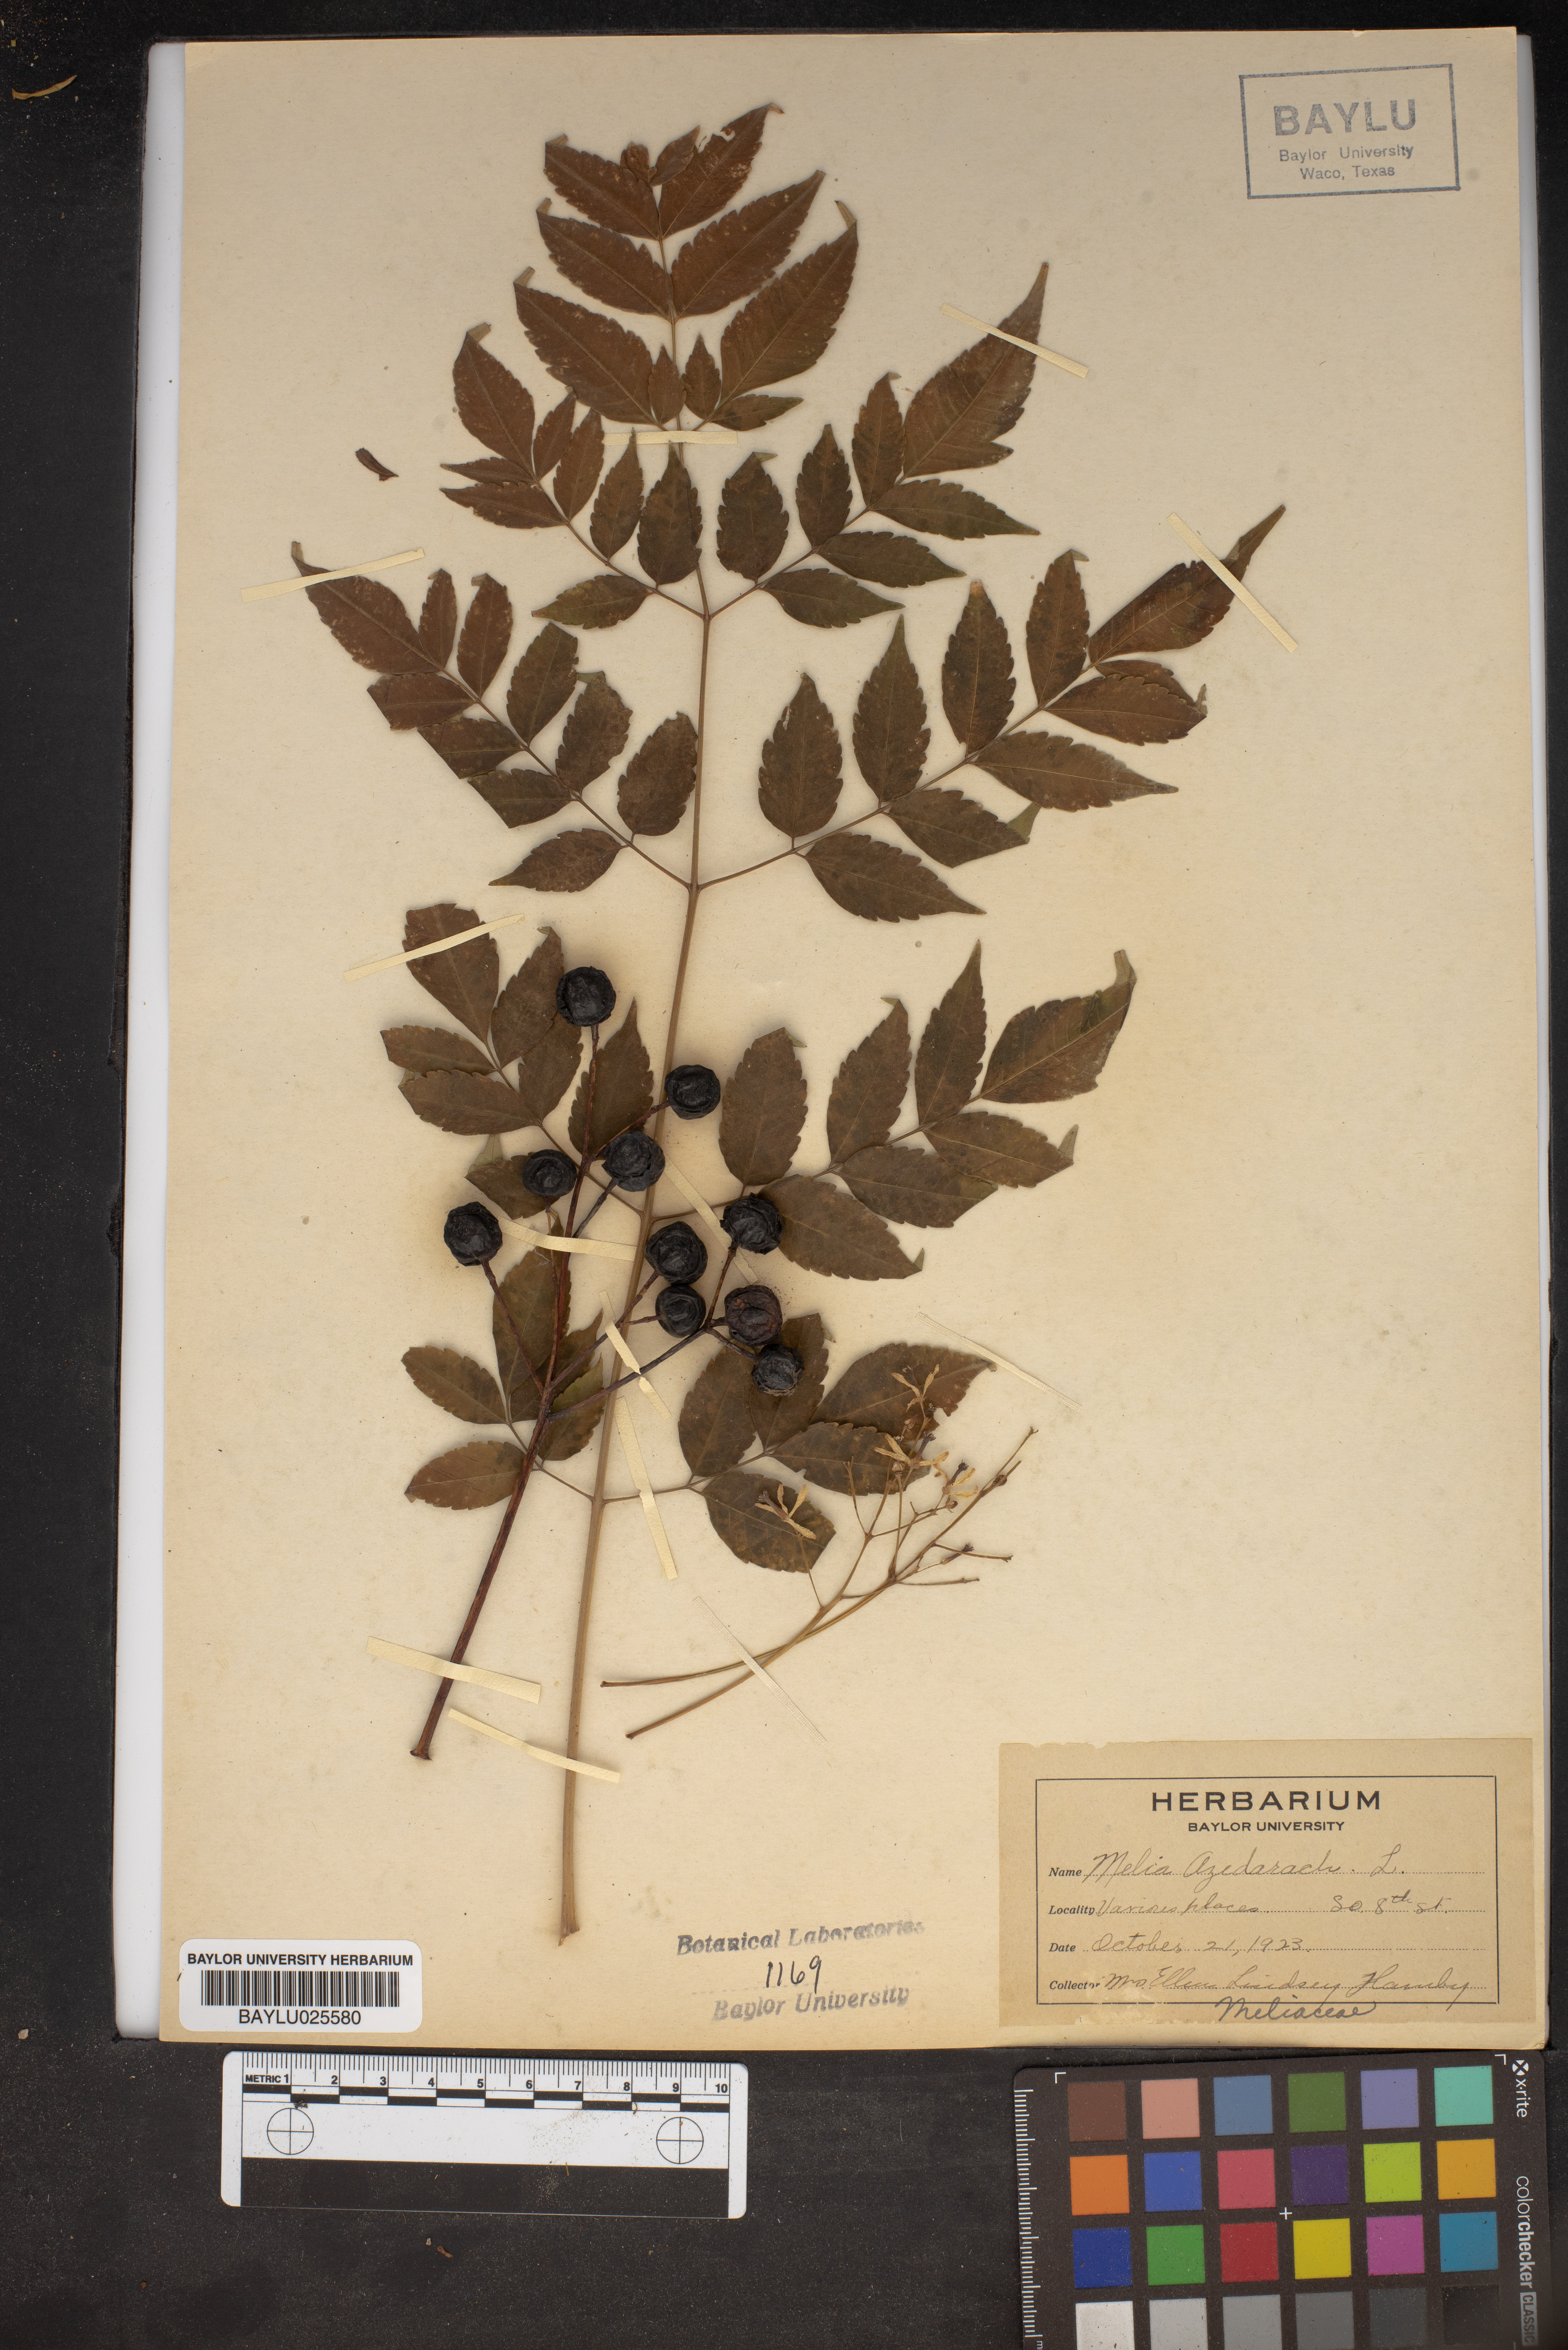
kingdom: Plantae
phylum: Tracheophyta
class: Magnoliopsida
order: Sapindales
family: Meliaceae
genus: Melia
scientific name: Melia azedarach
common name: Chinaberrytree
